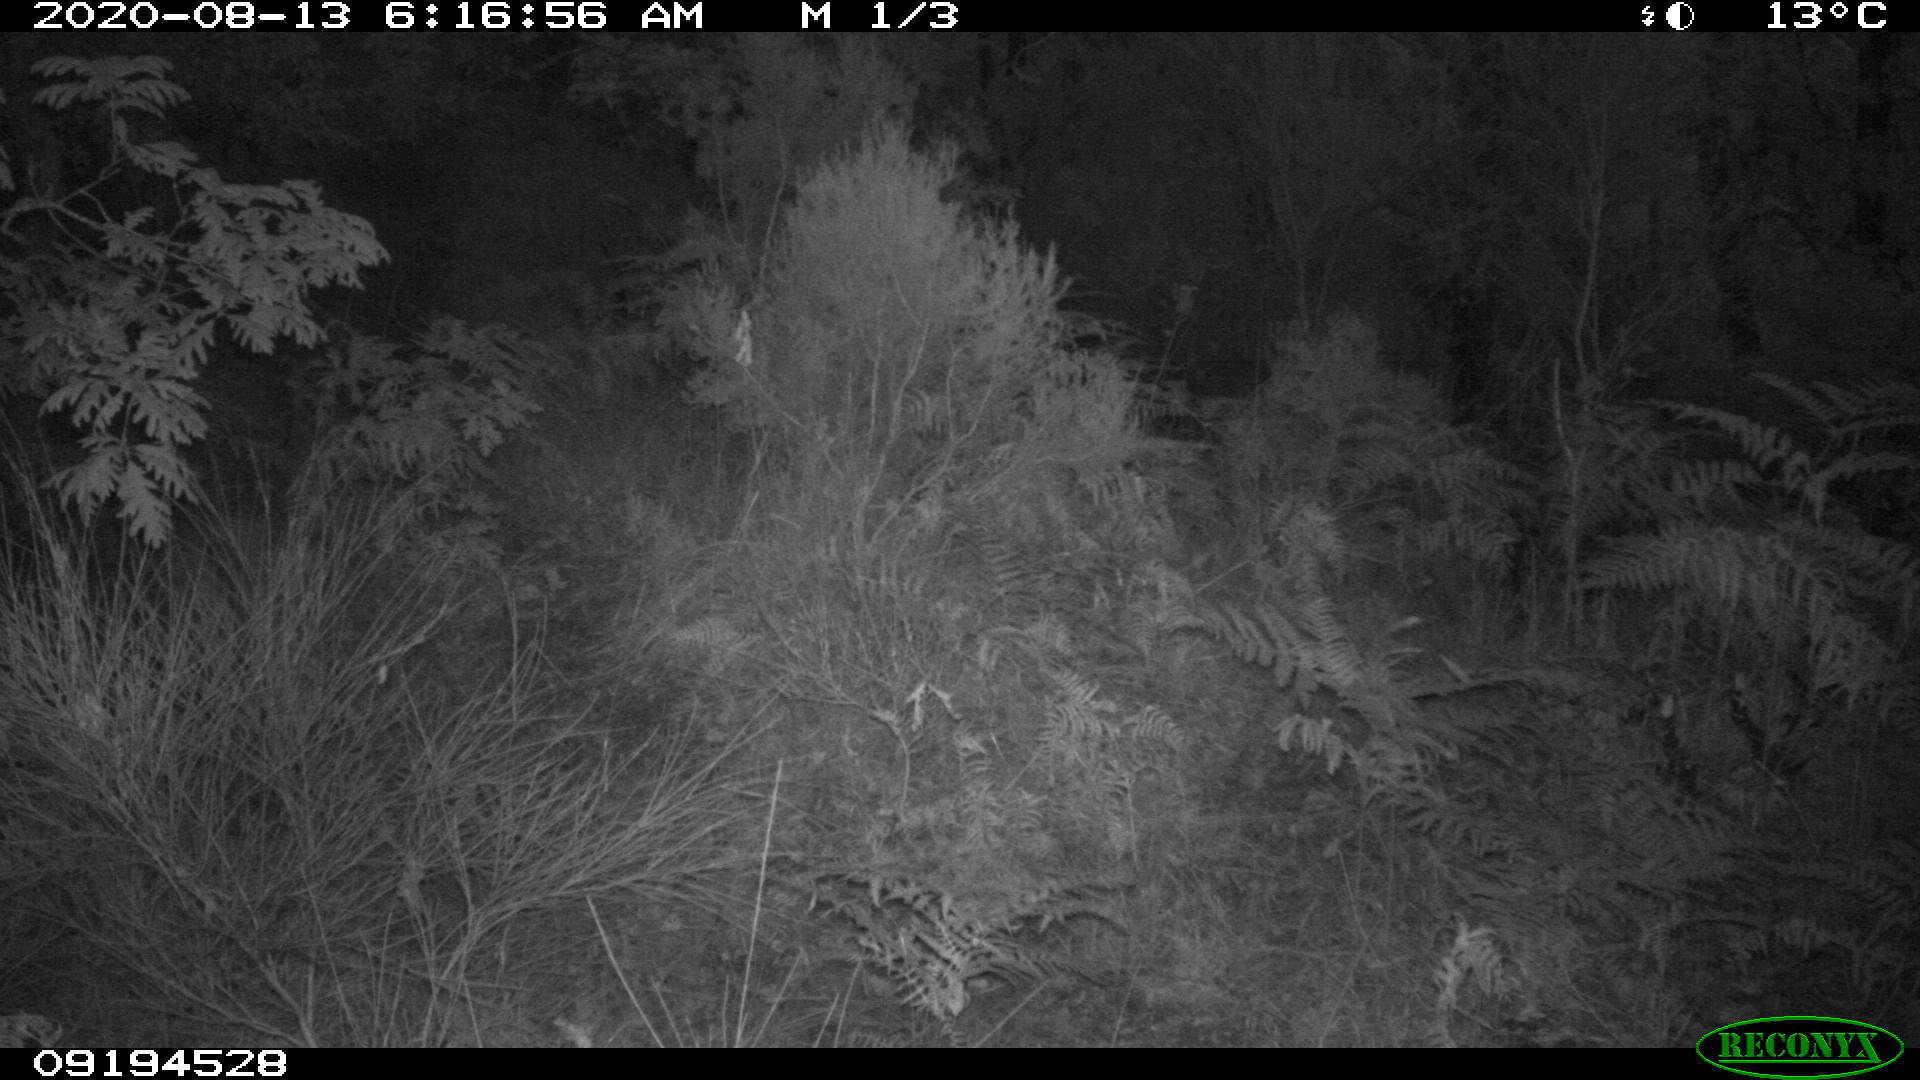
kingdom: Animalia
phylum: Chordata
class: Mammalia
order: Artiodactyla
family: Cervidae
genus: Capreolus
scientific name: Capreolus capreolus
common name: Western roe deer
